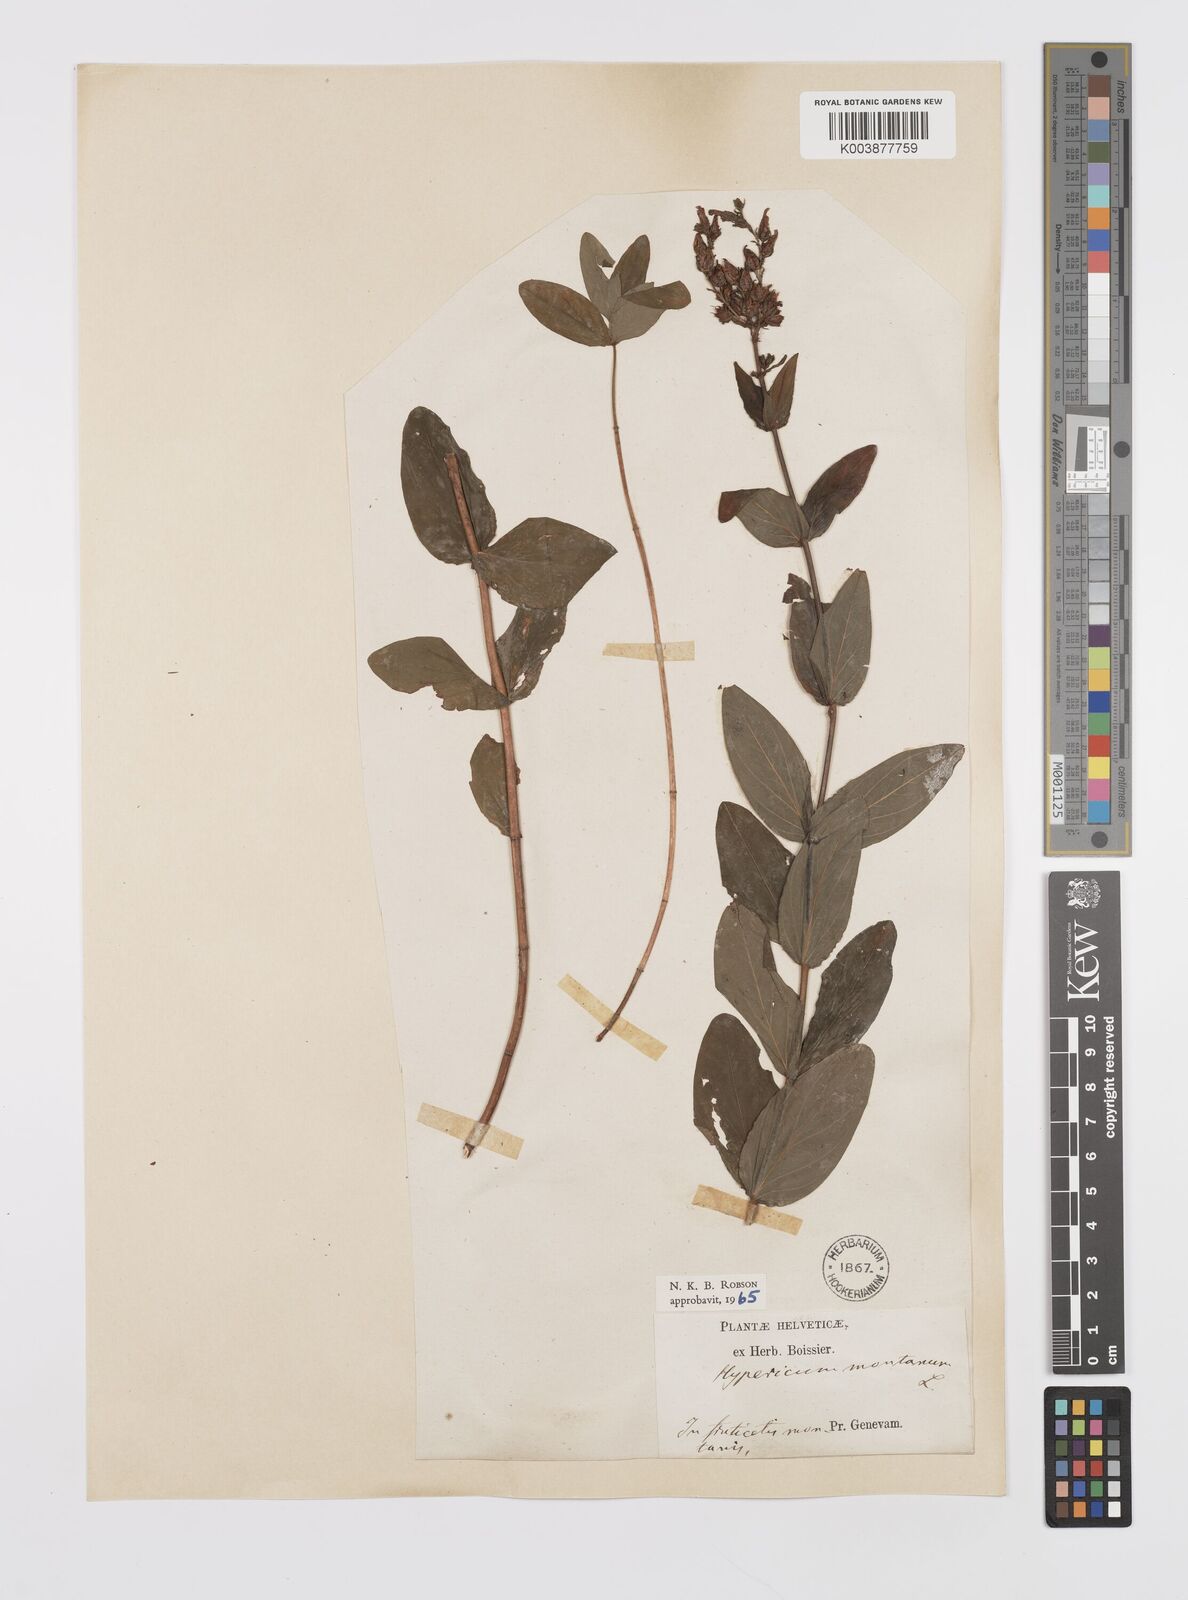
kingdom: Plantae
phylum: Tracheophyta
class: Magnoliopsida
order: Malpighiales
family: Hypericaceae
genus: Hypericum
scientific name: Hypericum montanum
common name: Pale st. john's-wort
